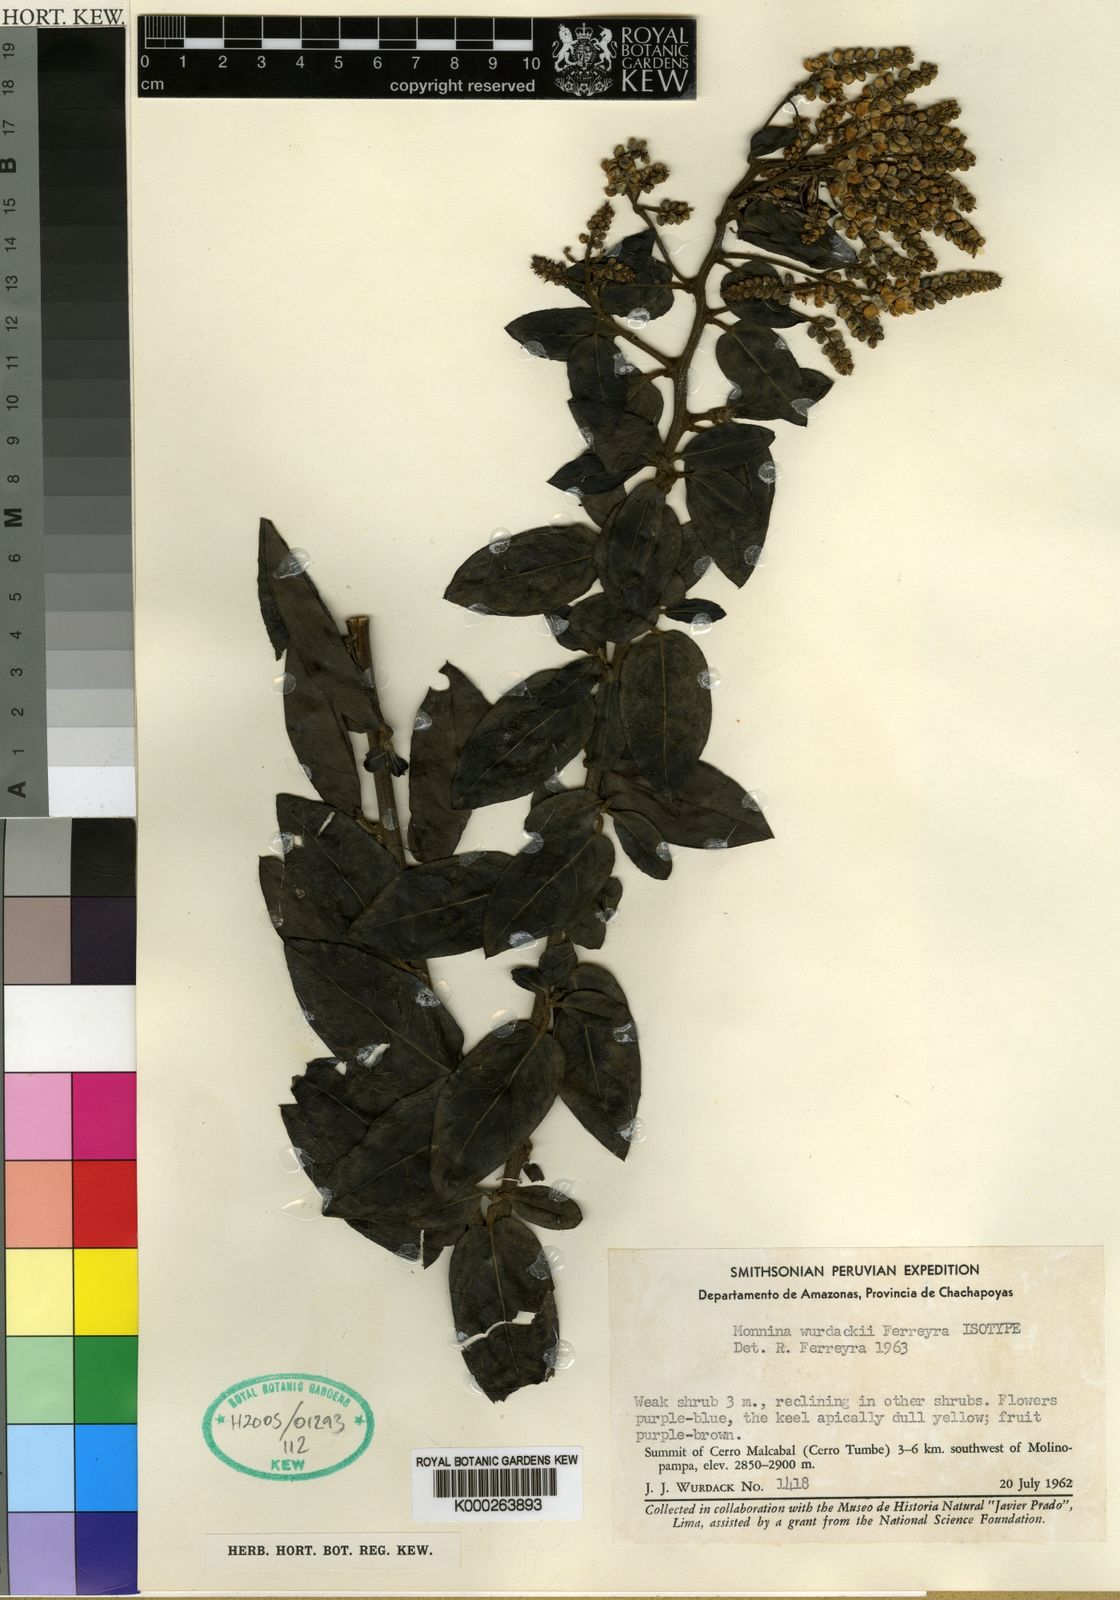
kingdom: Plantae
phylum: Tracheophyta
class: Magnoliopsida
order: Fabales
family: Polygalaceae
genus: Monnina
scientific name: Monnina wurdackii
